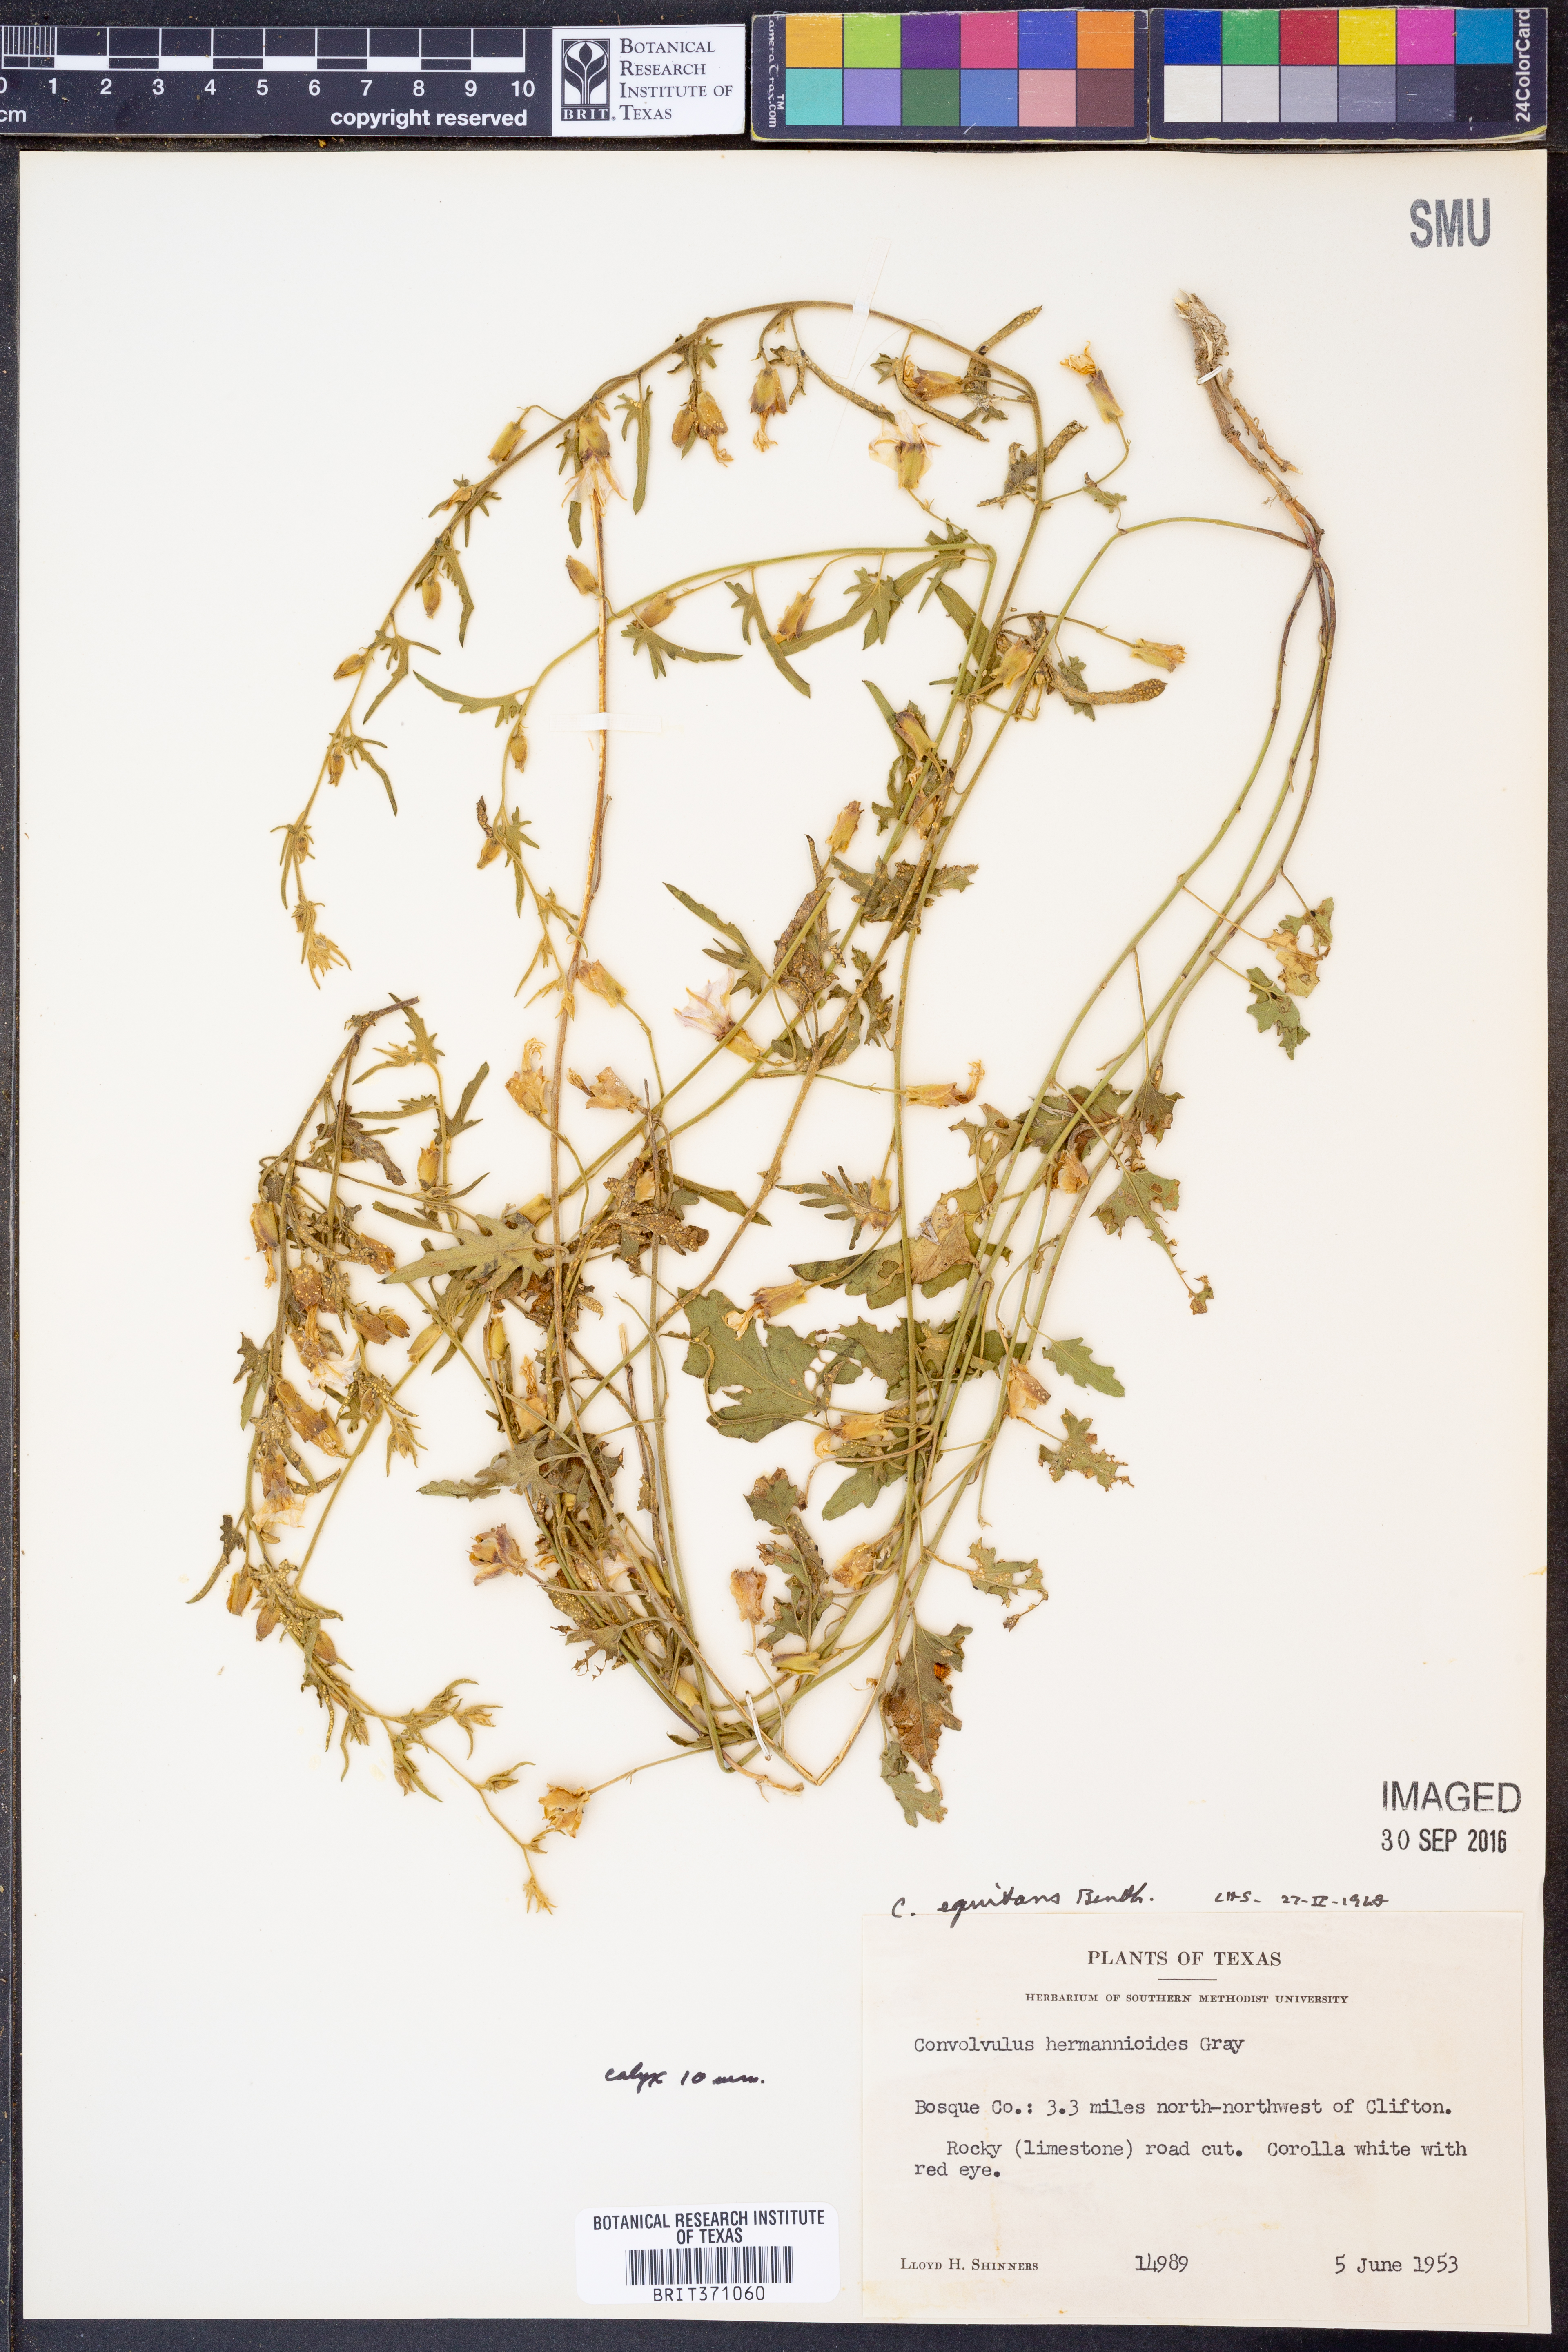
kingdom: Plantae
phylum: Tracheophyta
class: Magnoliopsida
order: Solanales
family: Convolvulaceae
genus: Convolvulus
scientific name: Convolvulus equitans
